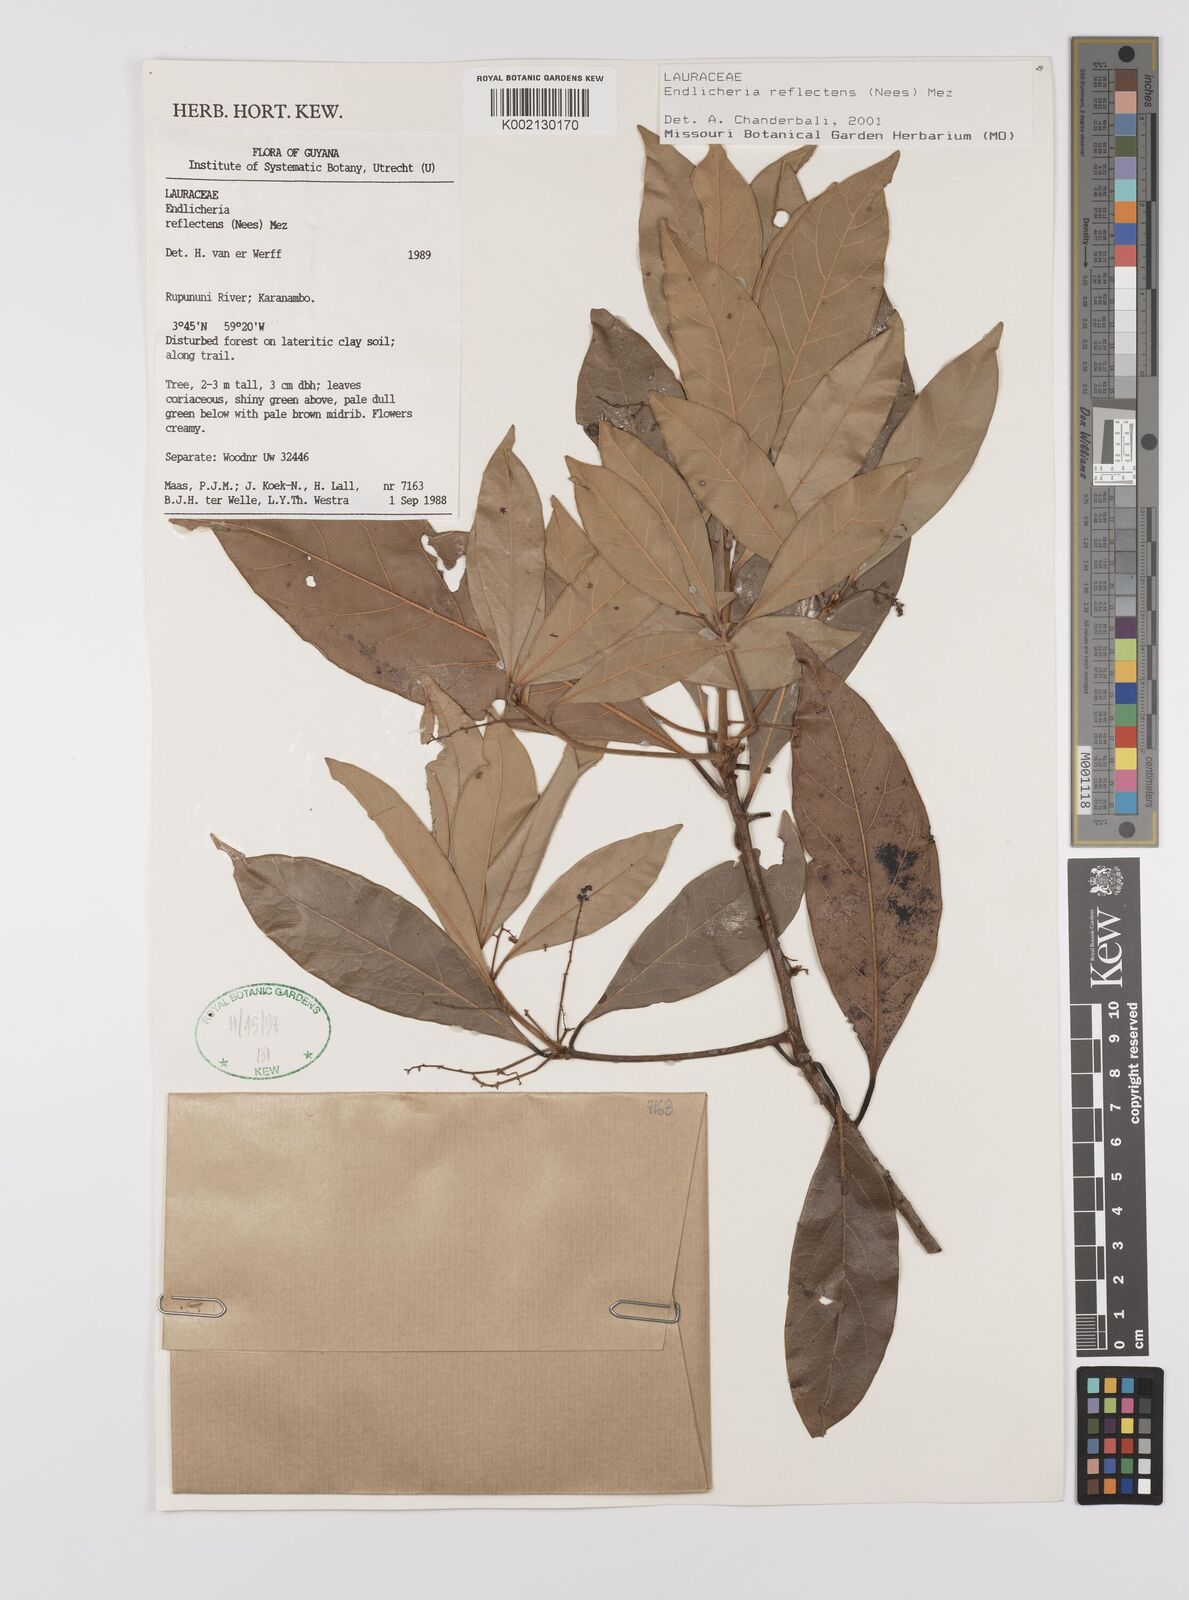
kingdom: Plantae
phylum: Tracheophyta
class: Magnoliopsida
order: Laurales
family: Lauraceae
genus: Endlicheria
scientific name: Endlicheria reflectens
